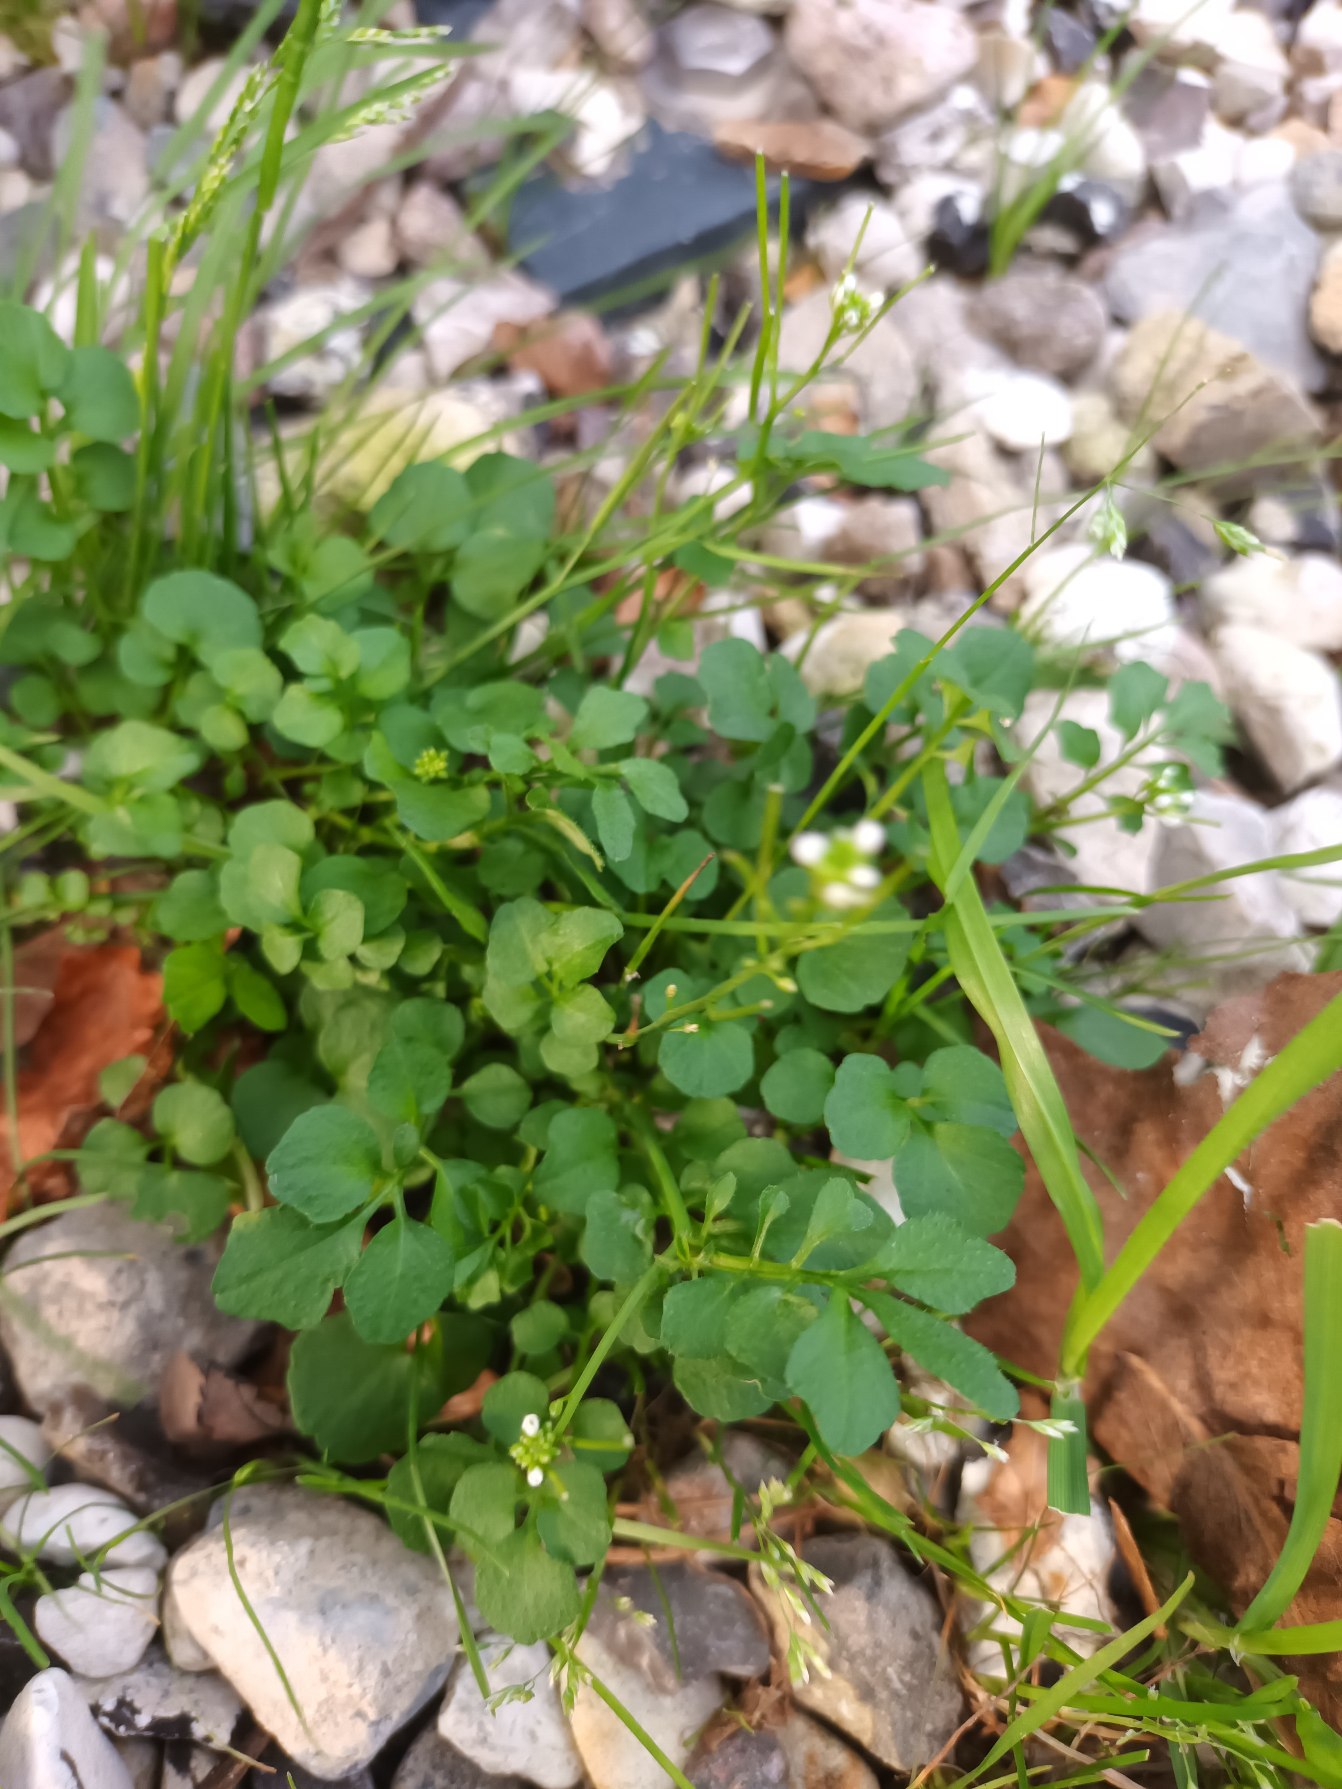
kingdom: Plantae
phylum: Tracheophyta
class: Magnoliopsida
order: Brassicales
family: Brassicaceae
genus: Cardamine
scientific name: Cardamine hirsuta
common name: Roset-springklap
